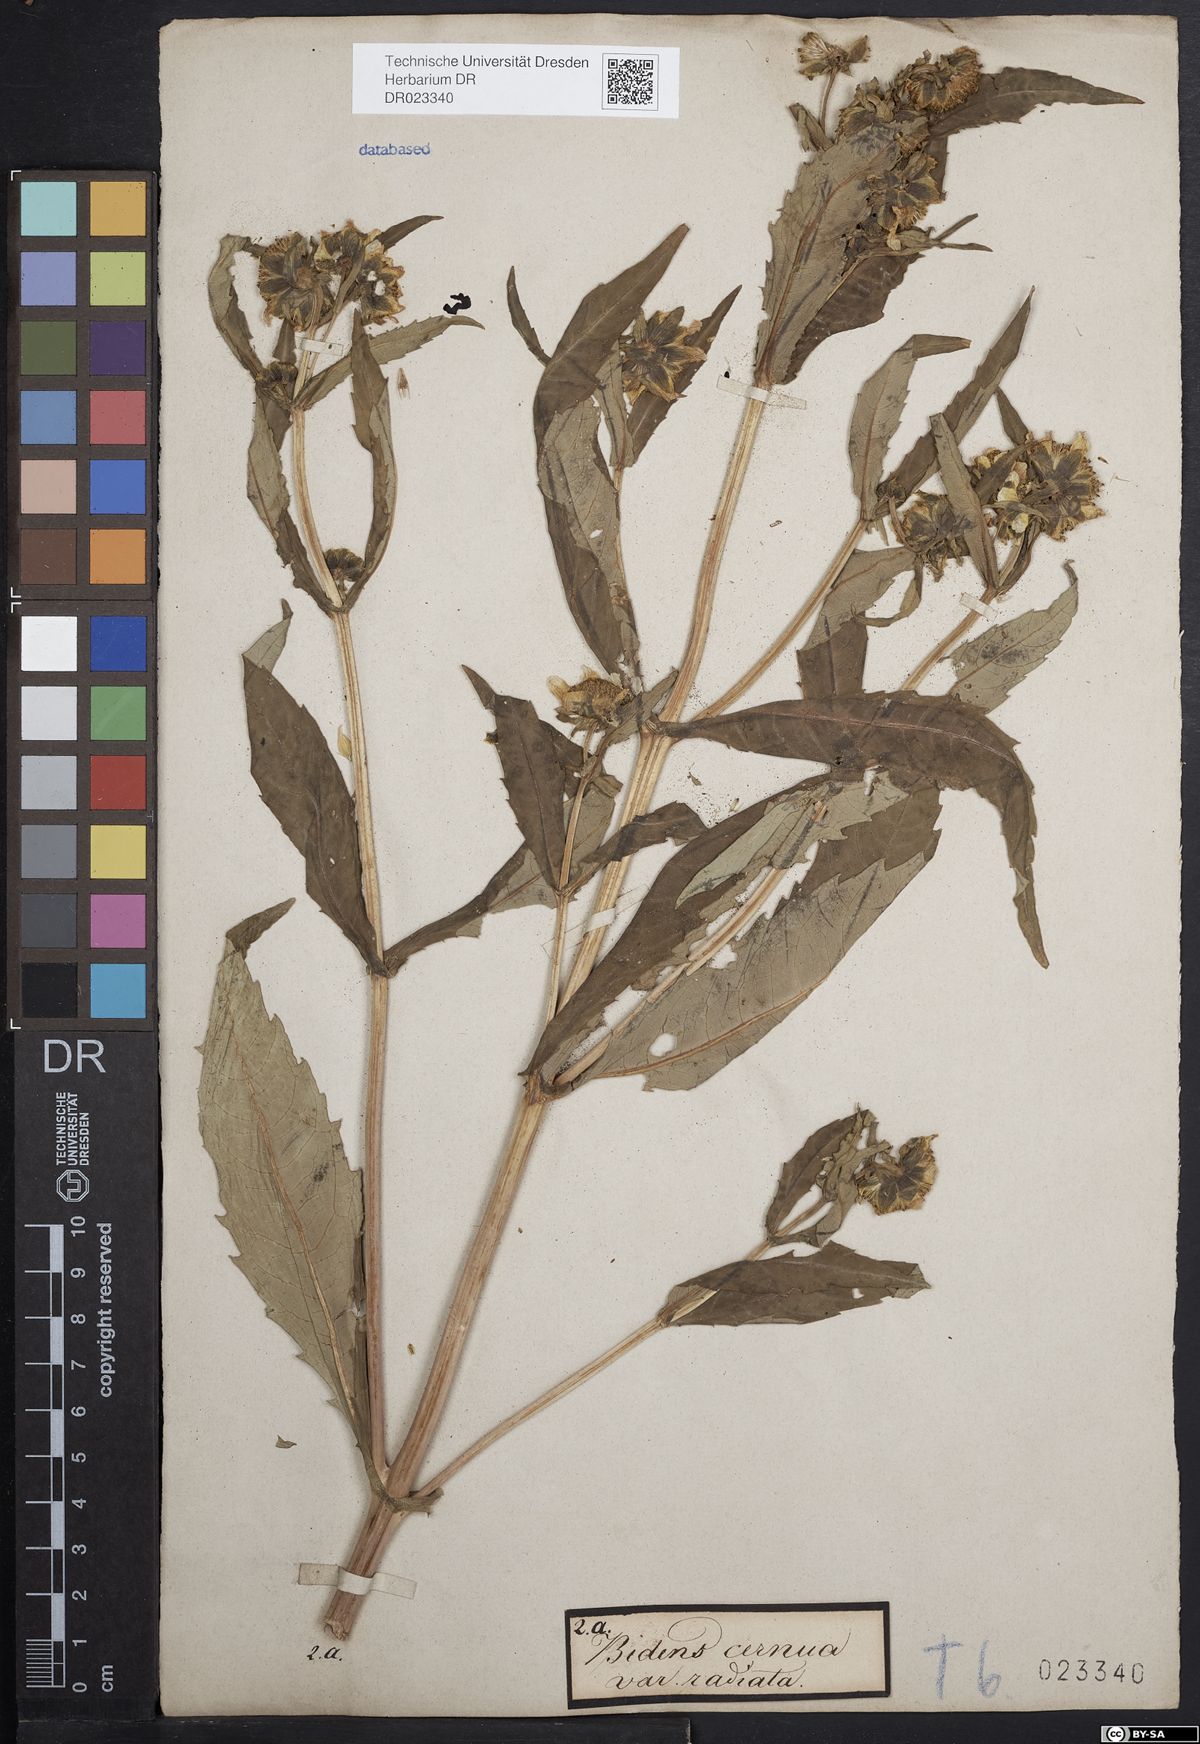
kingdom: Plantae
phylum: Tracheophyta
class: Magnoliopsida
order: Asterales
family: Asteraceae
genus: Bidens
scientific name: Bidens cernua
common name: Nodding bur-marigold
